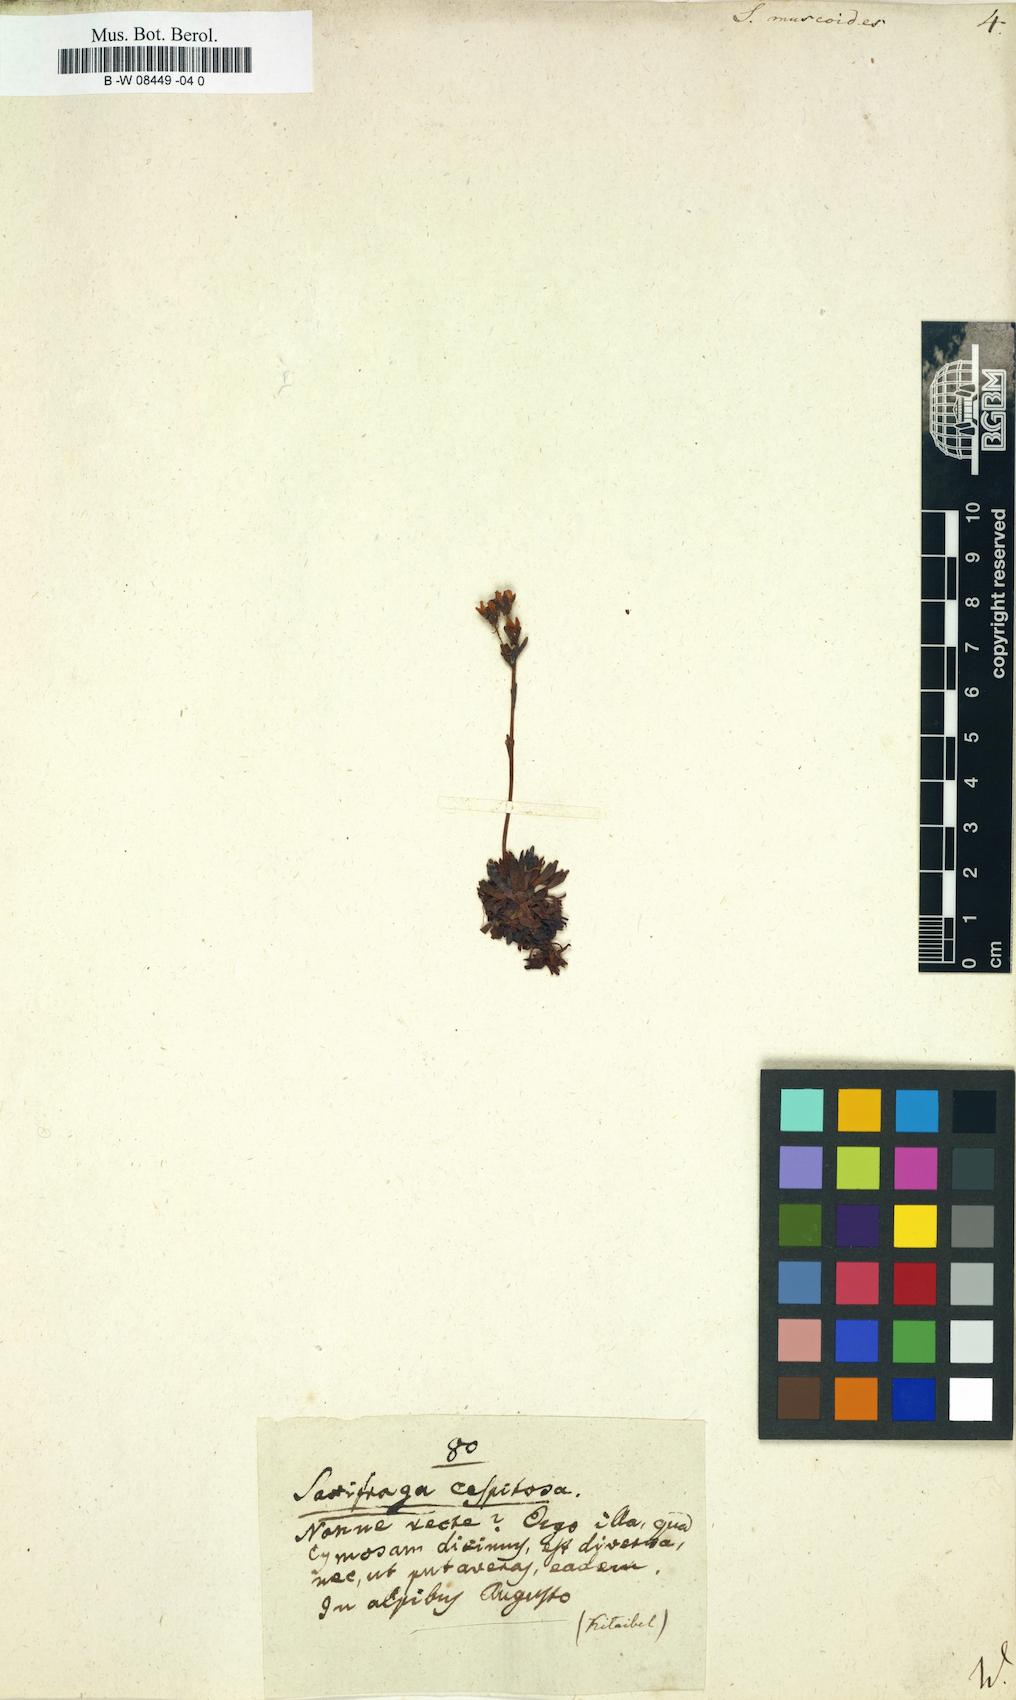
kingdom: Plantae
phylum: Tracheophyta
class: Magnoliopsida
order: Saxifragales
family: Saxifragaceae
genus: Saxifraga
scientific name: Saxifraga muscoides
